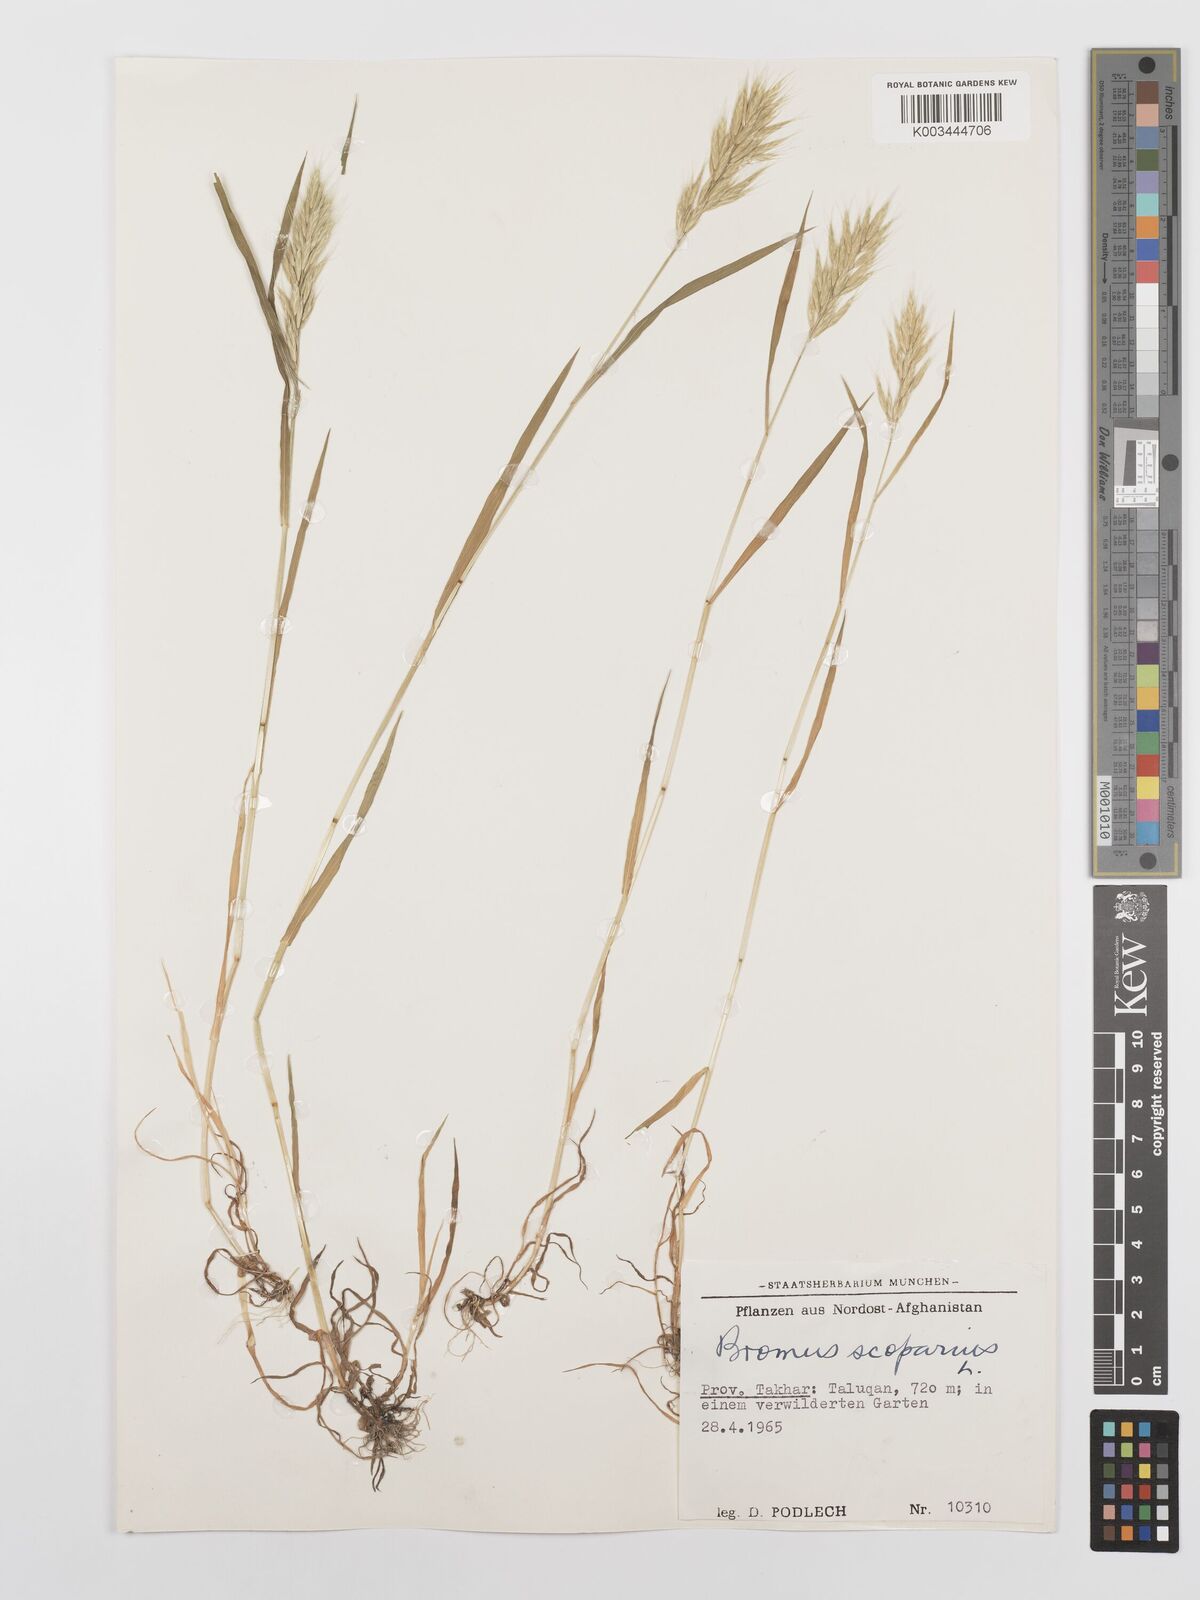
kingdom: Plantae
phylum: Tracheophyta
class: Liliopsida
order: Poales
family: Poaceae
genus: Bromus
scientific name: Bromus scoparius
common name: Broom brome
